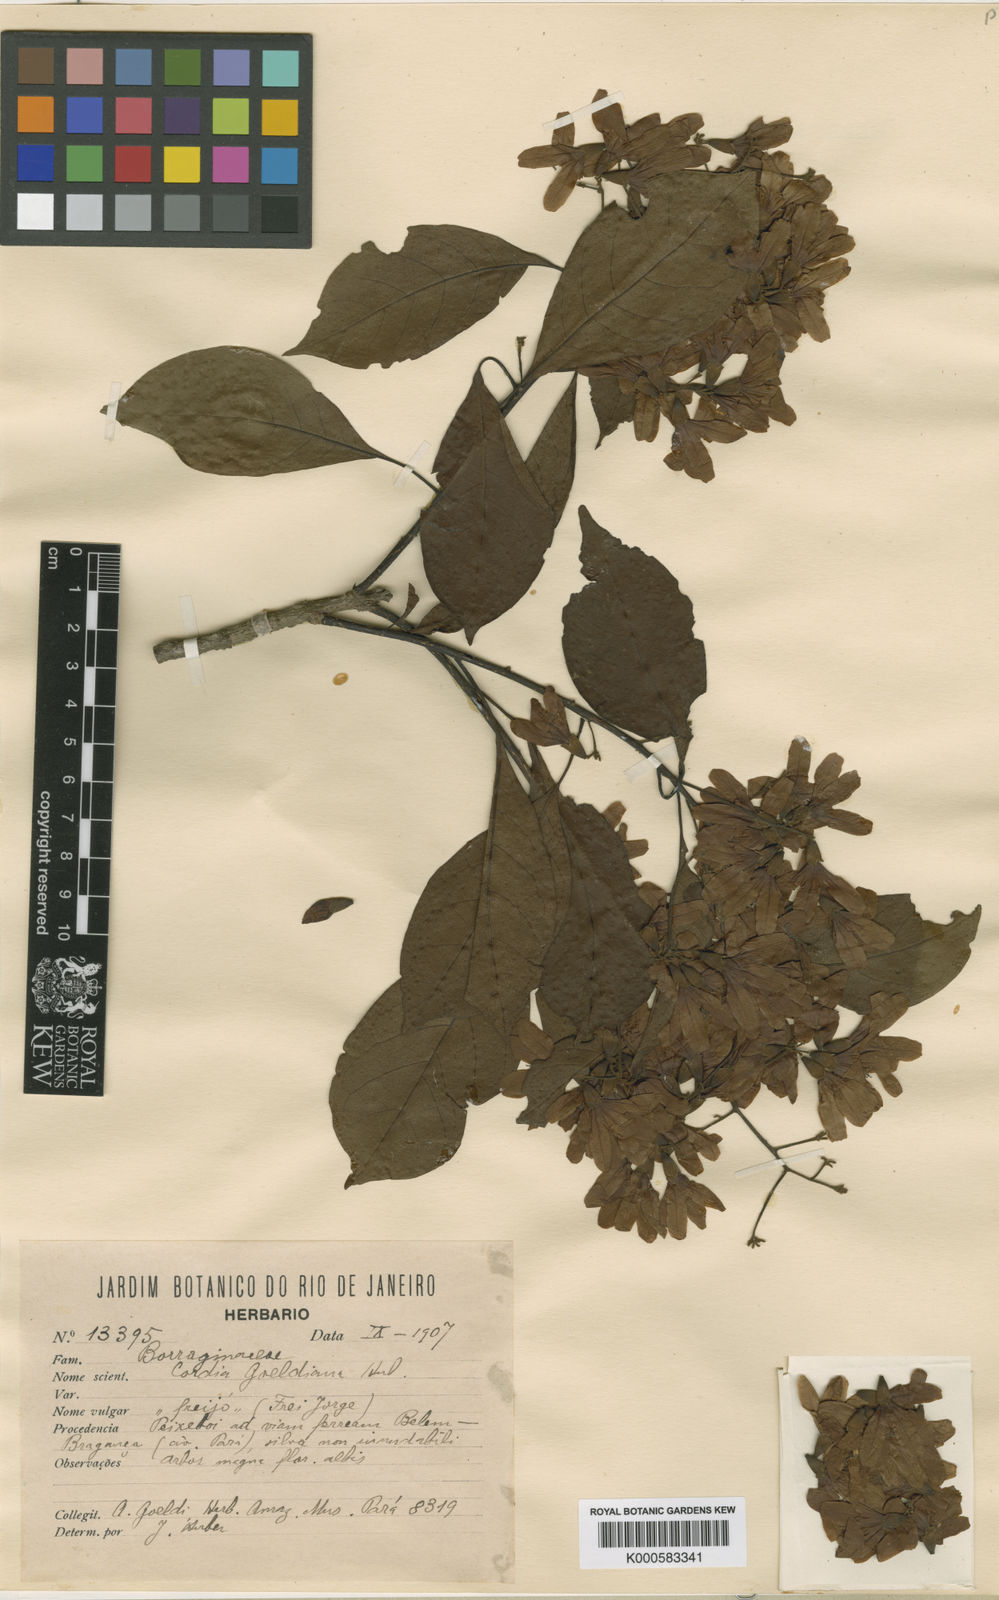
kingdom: Plantae
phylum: Tracheophyta
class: Magnoliopsida
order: Boraginales
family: Cordiaceae
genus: Cordia
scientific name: Cordia goeldiana
